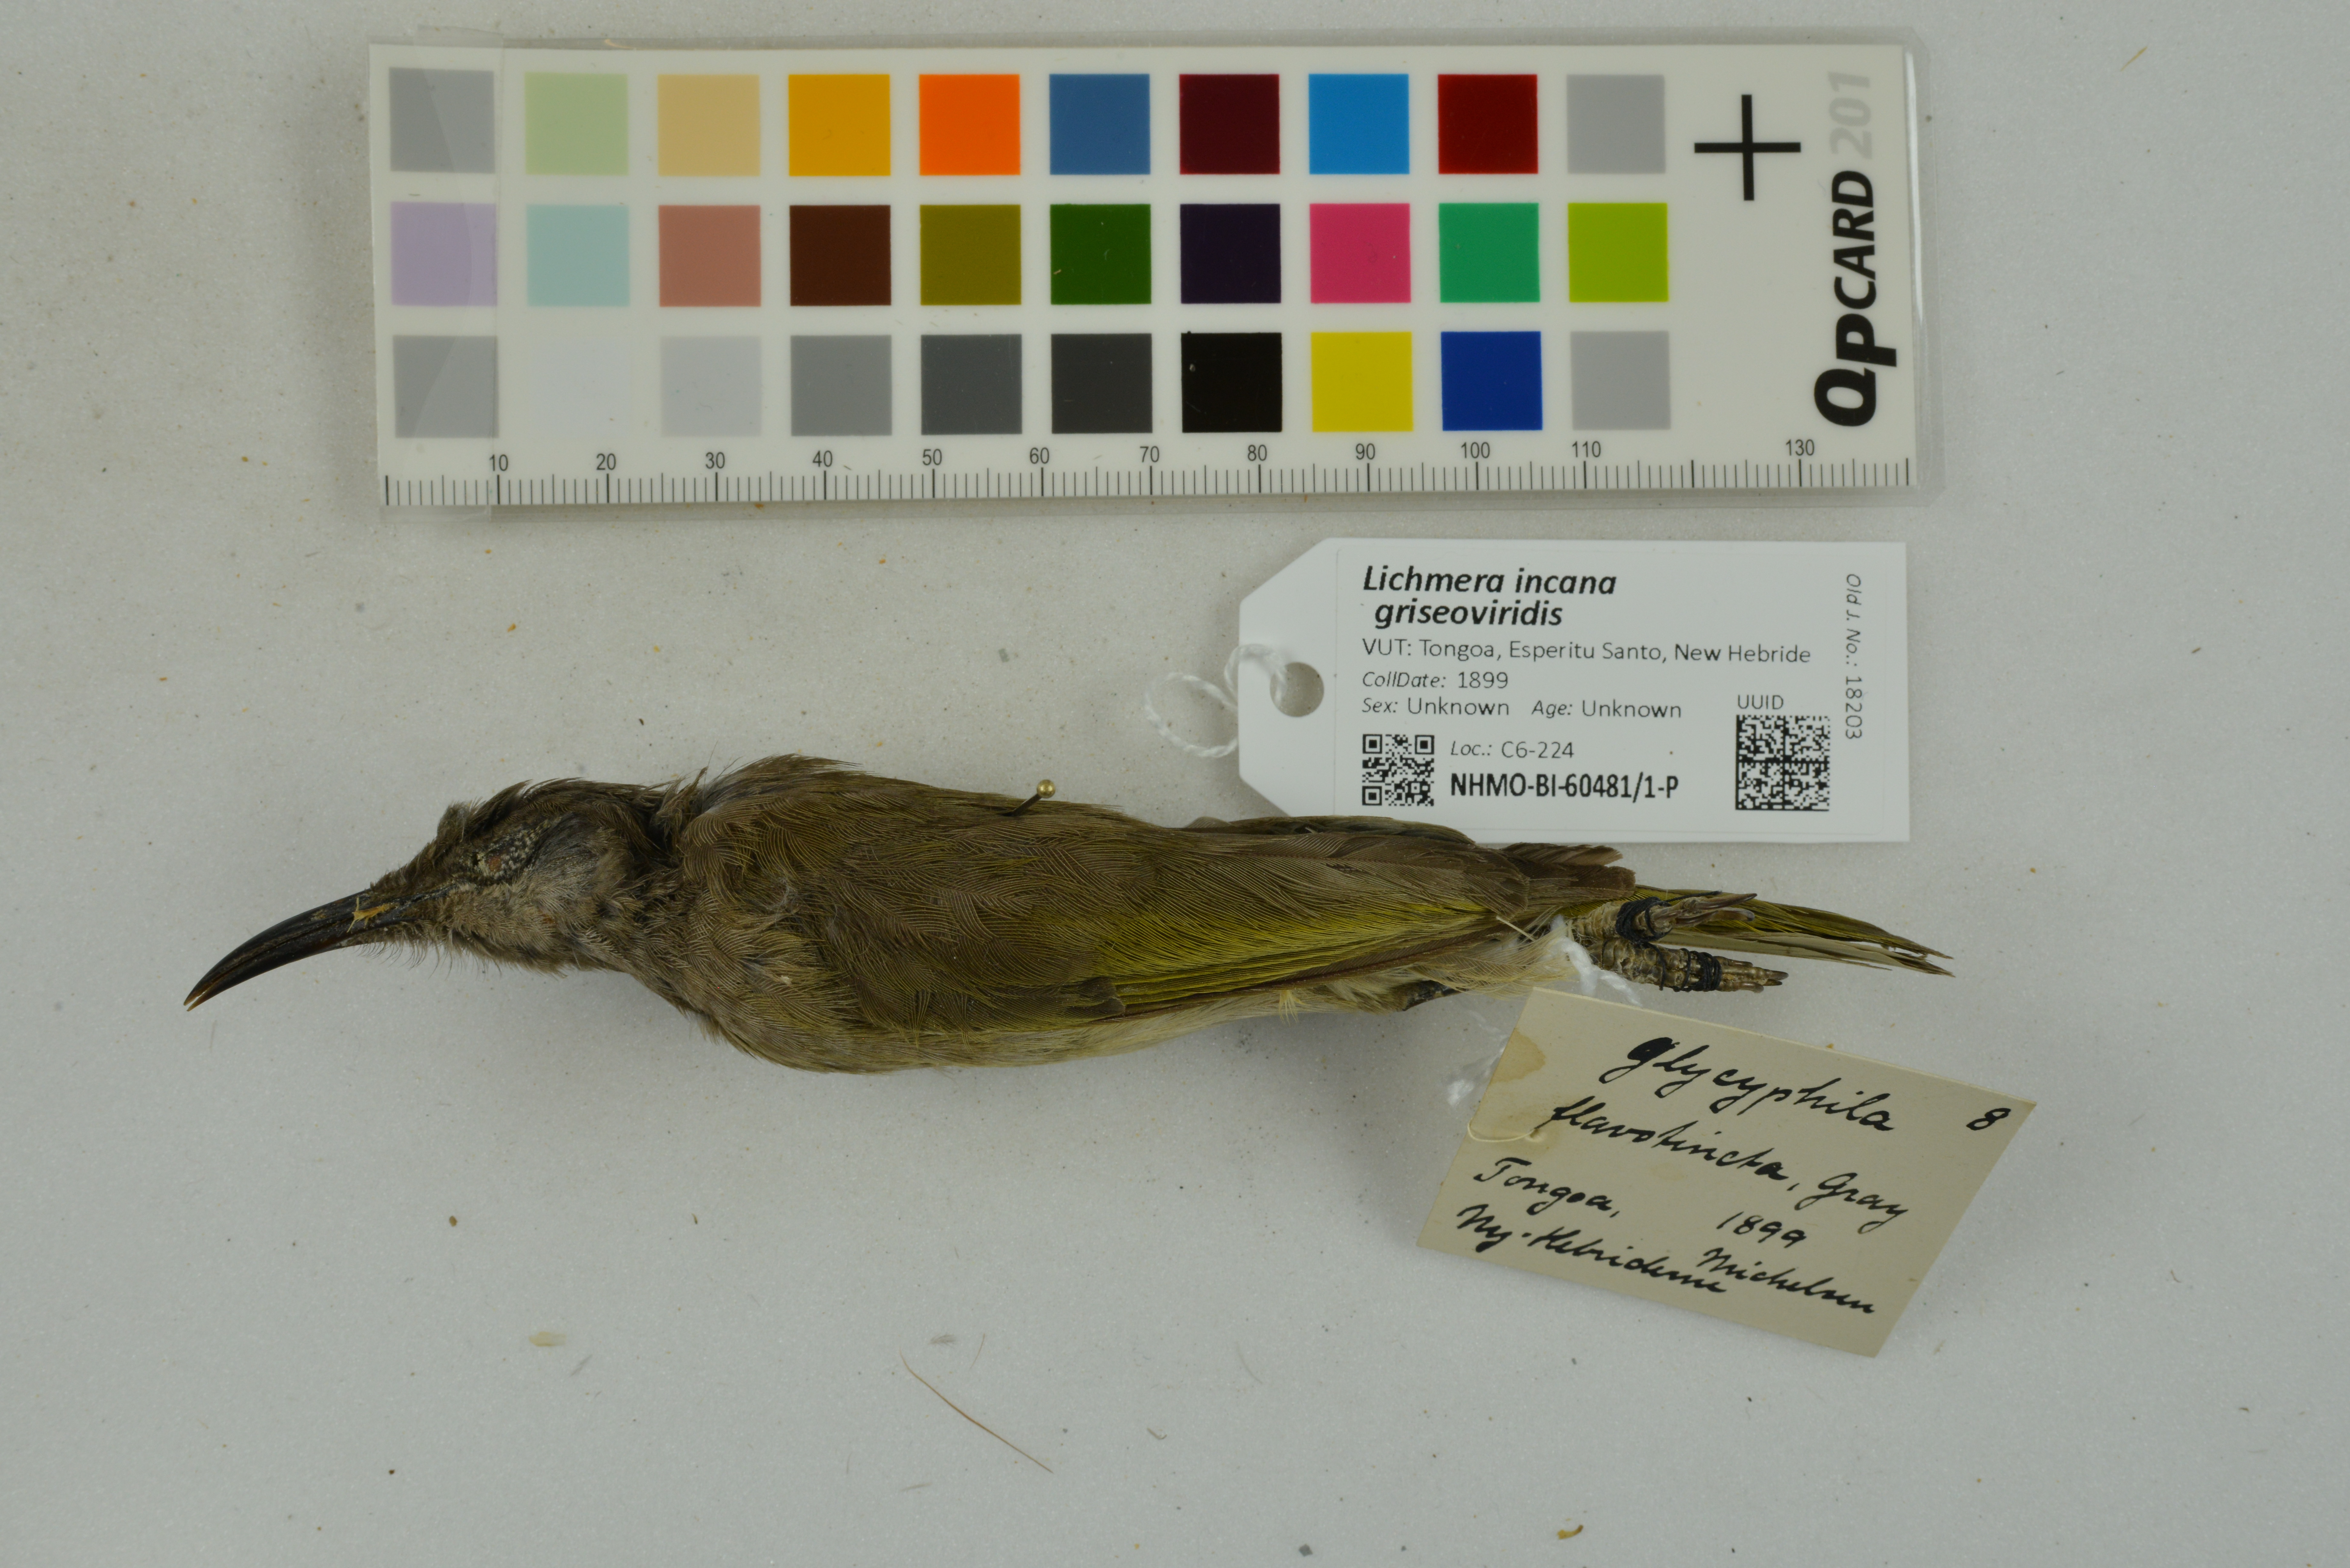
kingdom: Animalia
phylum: Chordata
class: Aves
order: Passeriformes
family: Meliphagidae
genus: Lichmera
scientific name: Lichmera incana
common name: Grey-eared honeyeater
